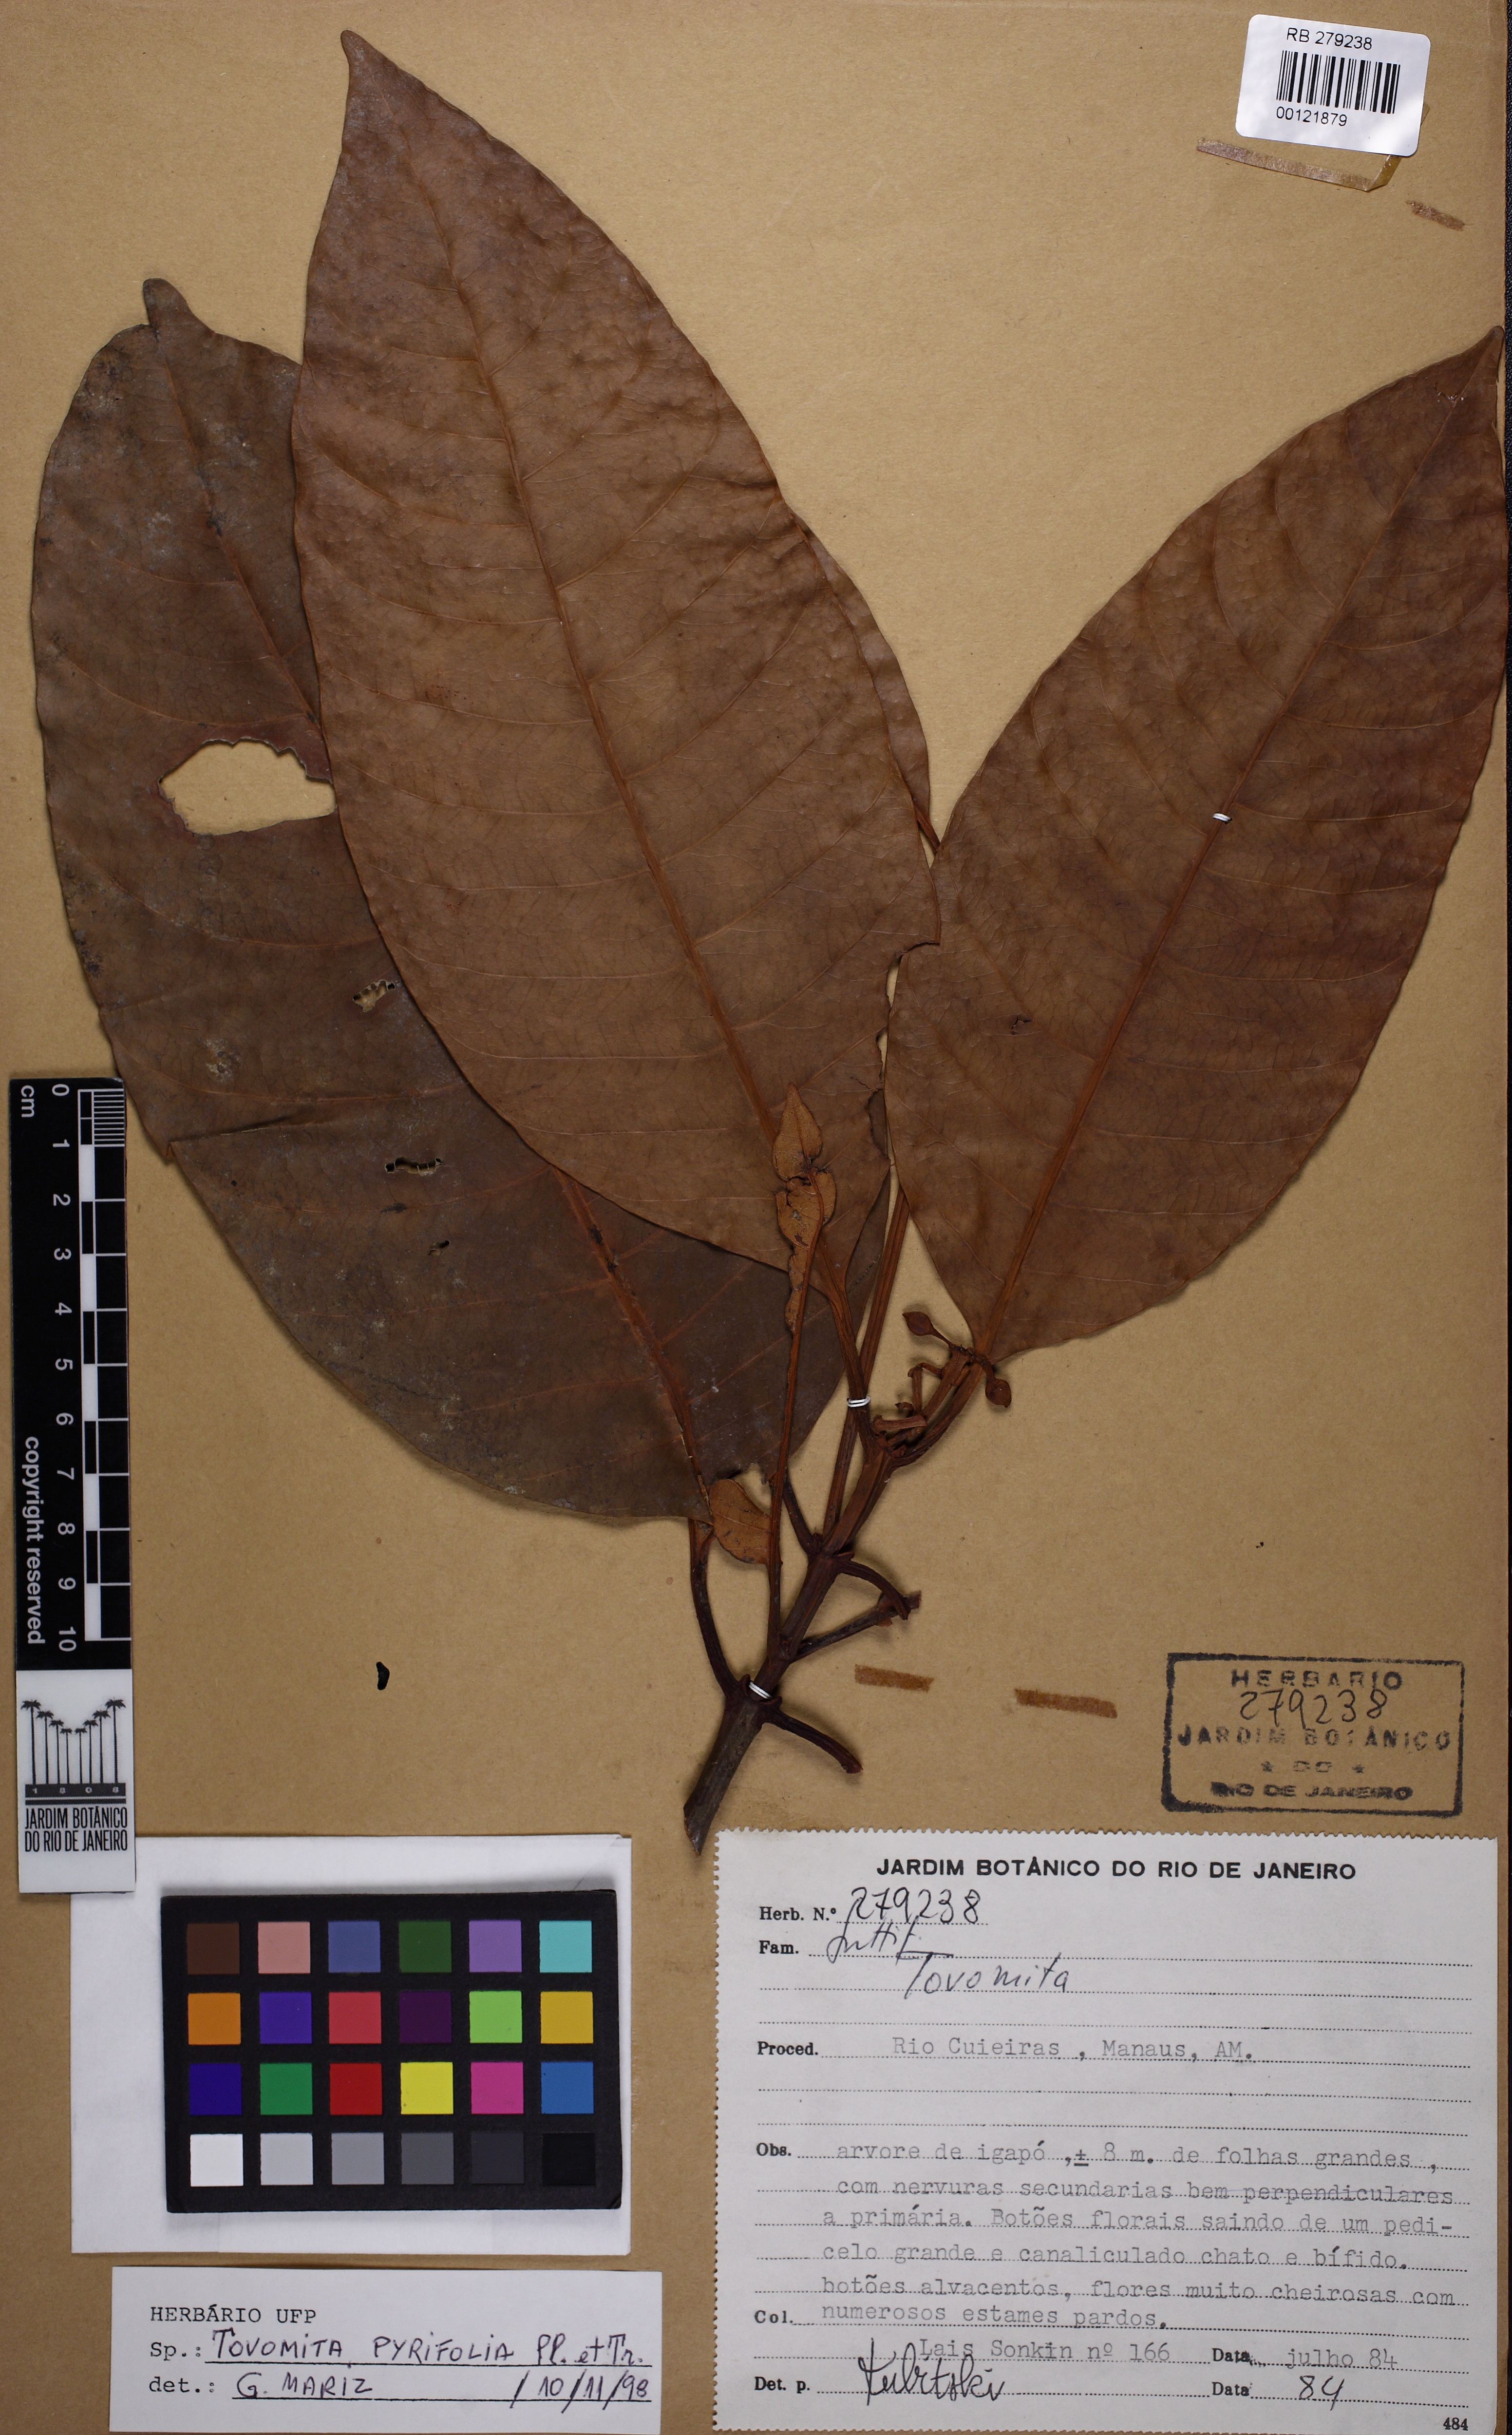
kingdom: Plantae
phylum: Tracheophyta
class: Magnoliopsida
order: Malpighiales
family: Clusiaceae
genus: Tovomita
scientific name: Tovomita macrophylla
